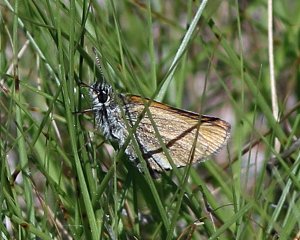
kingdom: Animalia
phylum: Arthropoda
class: Insecta
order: Lepidoptera
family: Hesperiidae
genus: Thymelicus
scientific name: Thymelicus lineola
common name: European Skipper
